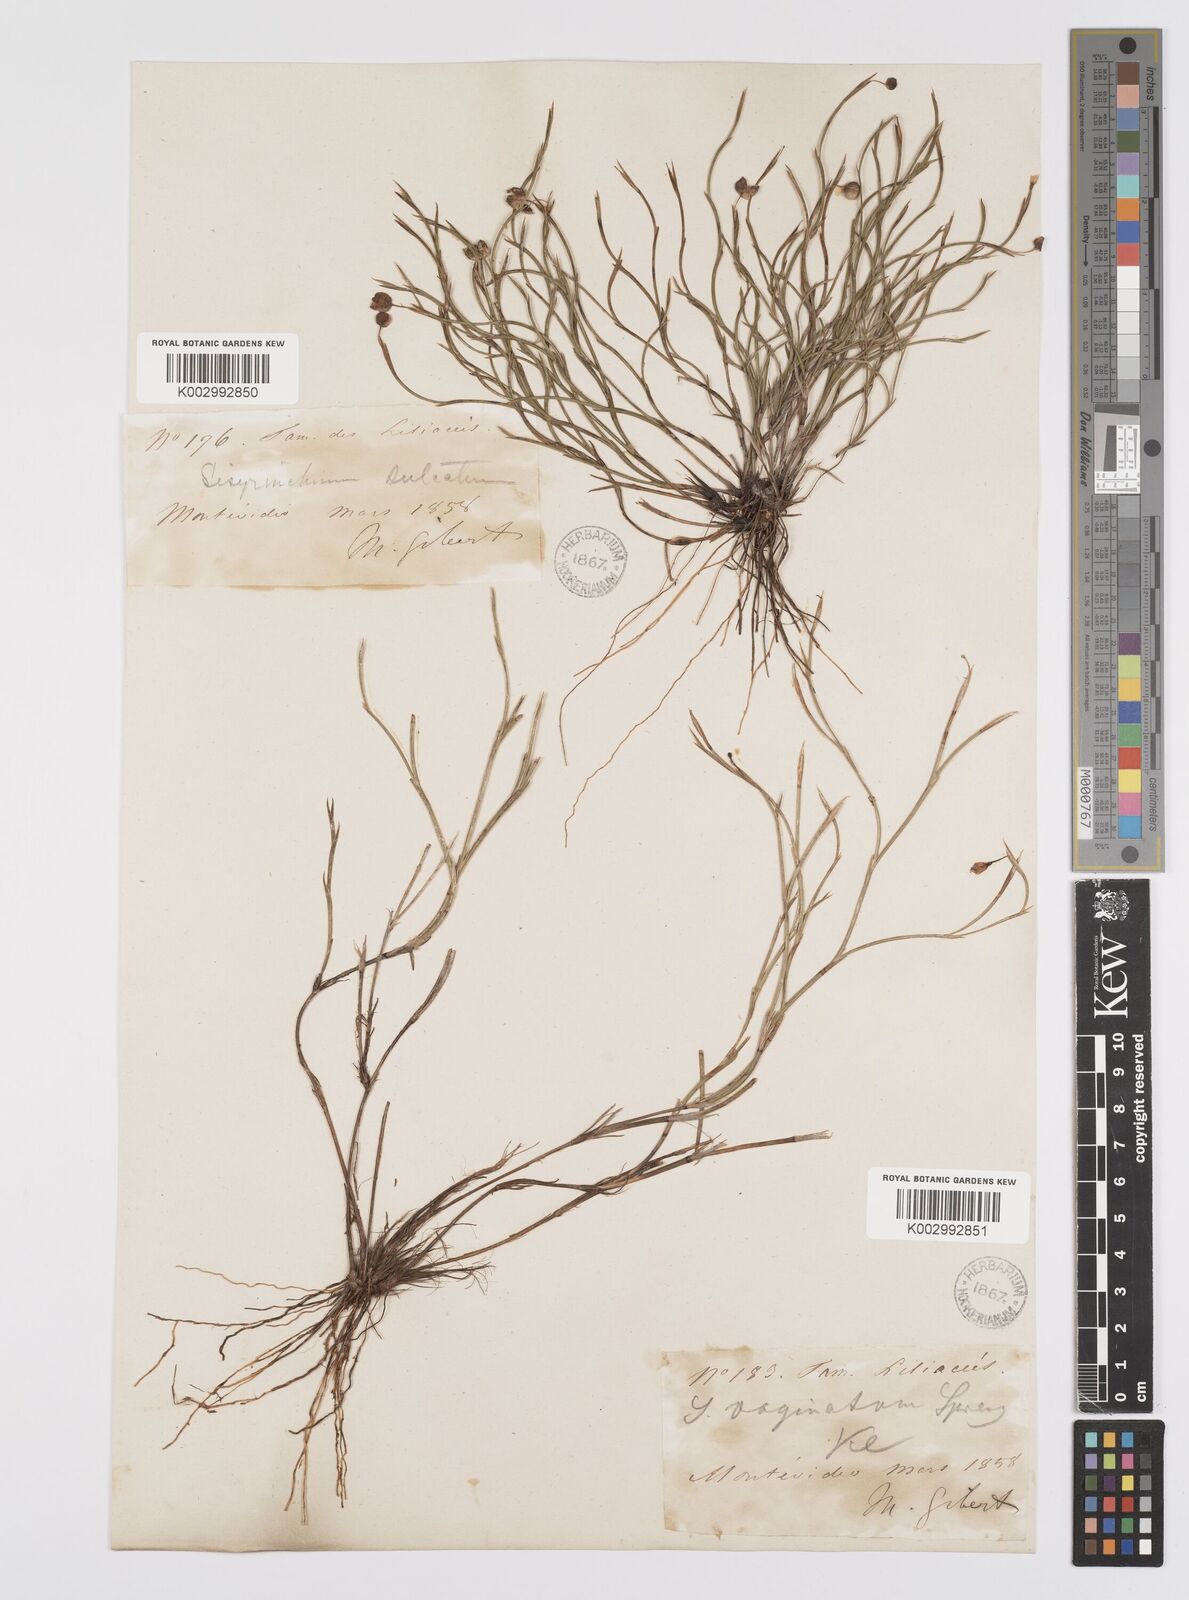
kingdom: Plantae
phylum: Tracheophyta
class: Liliopsida
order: Asparagales
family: Iridaceae
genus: Sisyrinchium
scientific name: Sisyrinchium vaginatum
